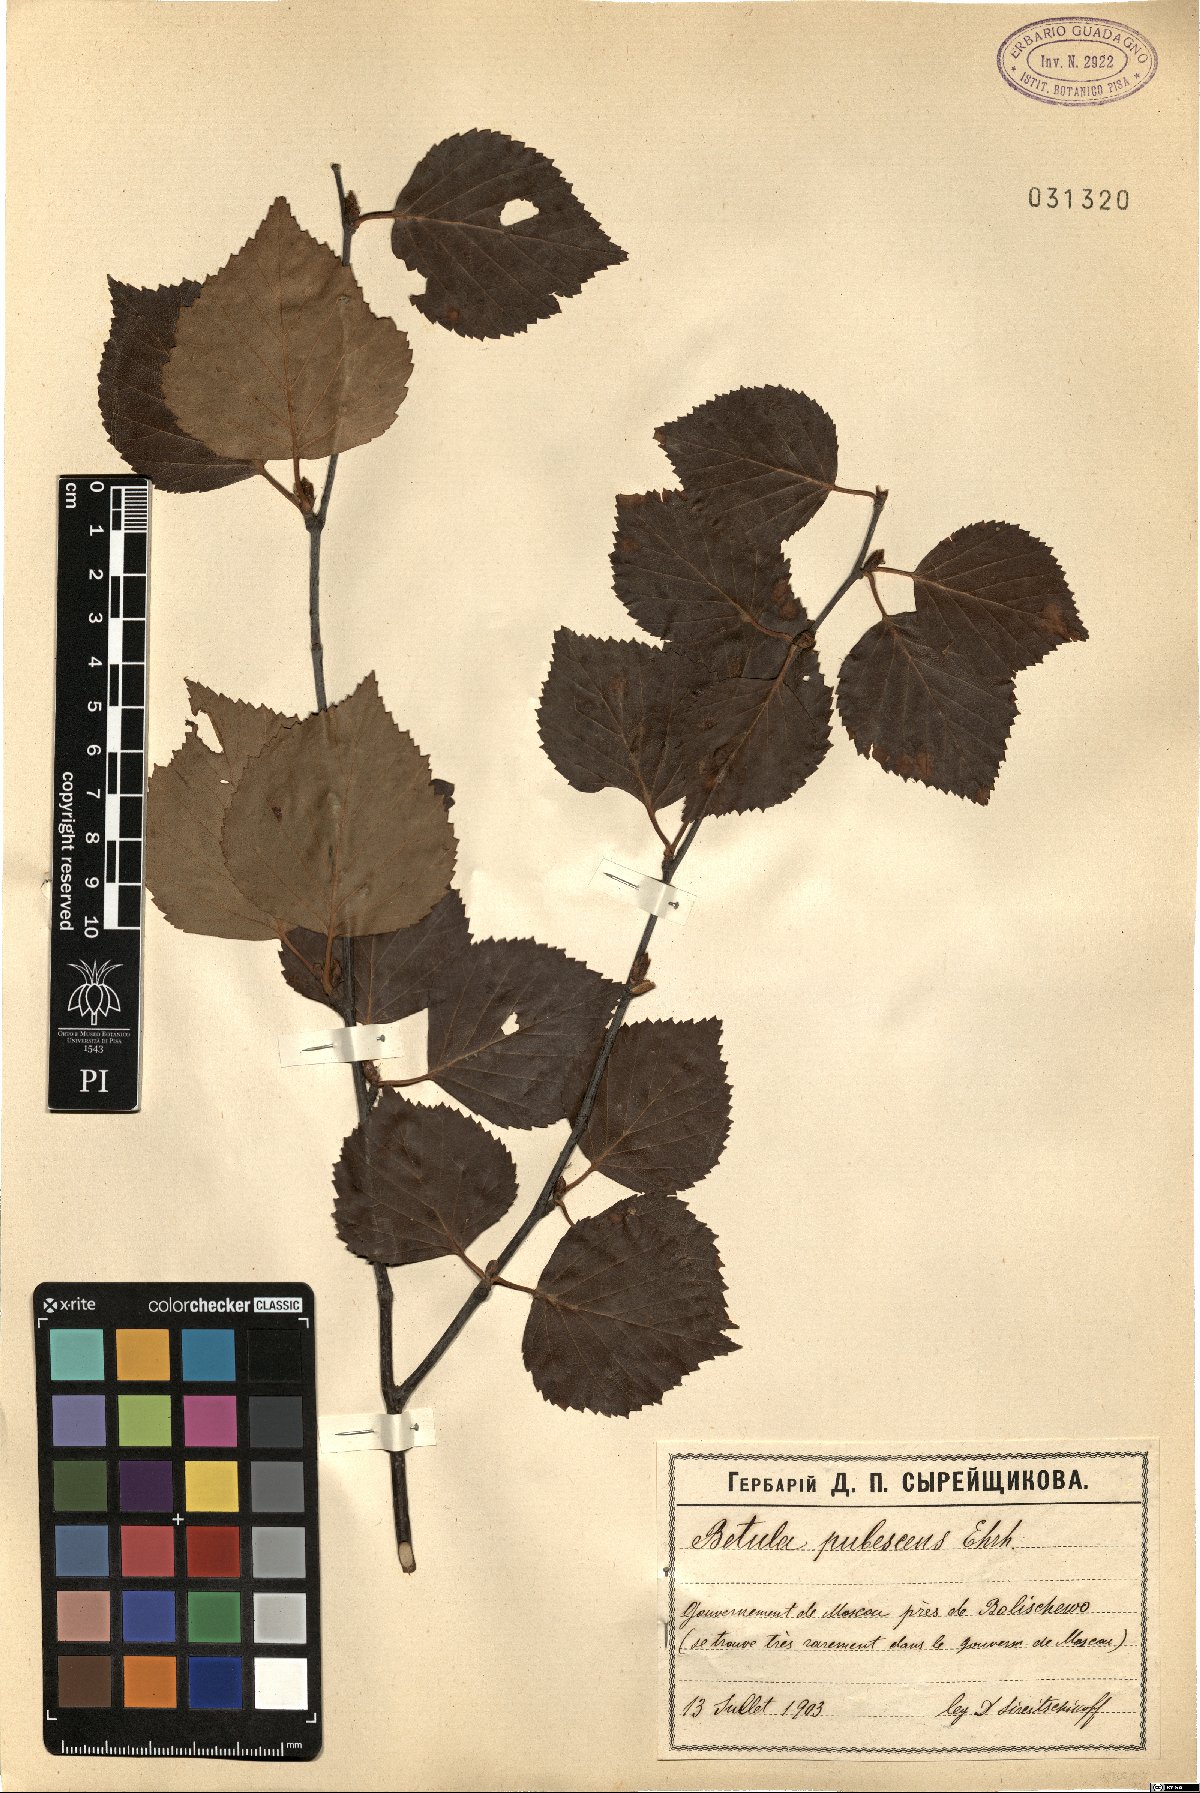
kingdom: Plantae
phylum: Tracheophyta
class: Magnoliopsida
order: Fagales
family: Betulaceae
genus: Betula
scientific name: Betula pubescens
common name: Downy birch
